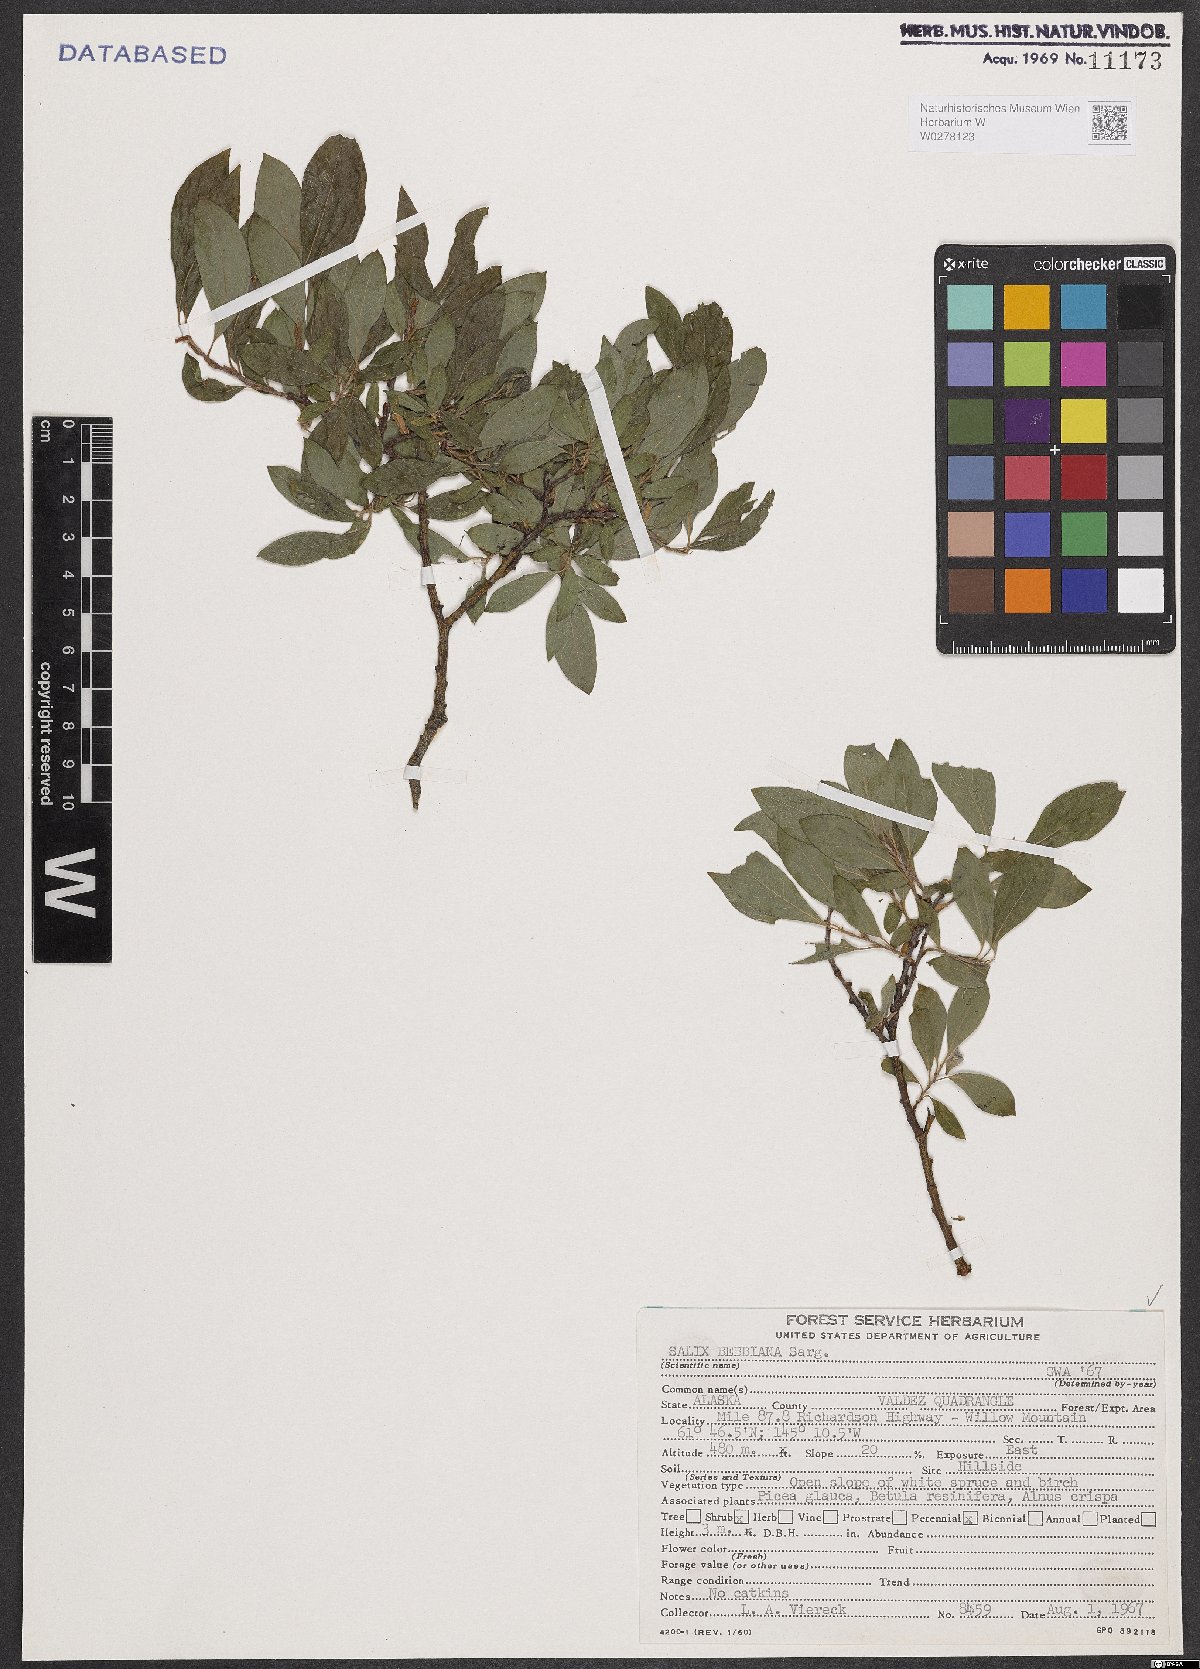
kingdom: Plantae
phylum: Tracheophyta
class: Magnoliopsida
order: Malpighiales
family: Salicaceae
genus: Salix
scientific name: Salix bebbiana
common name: Bebb's willow
